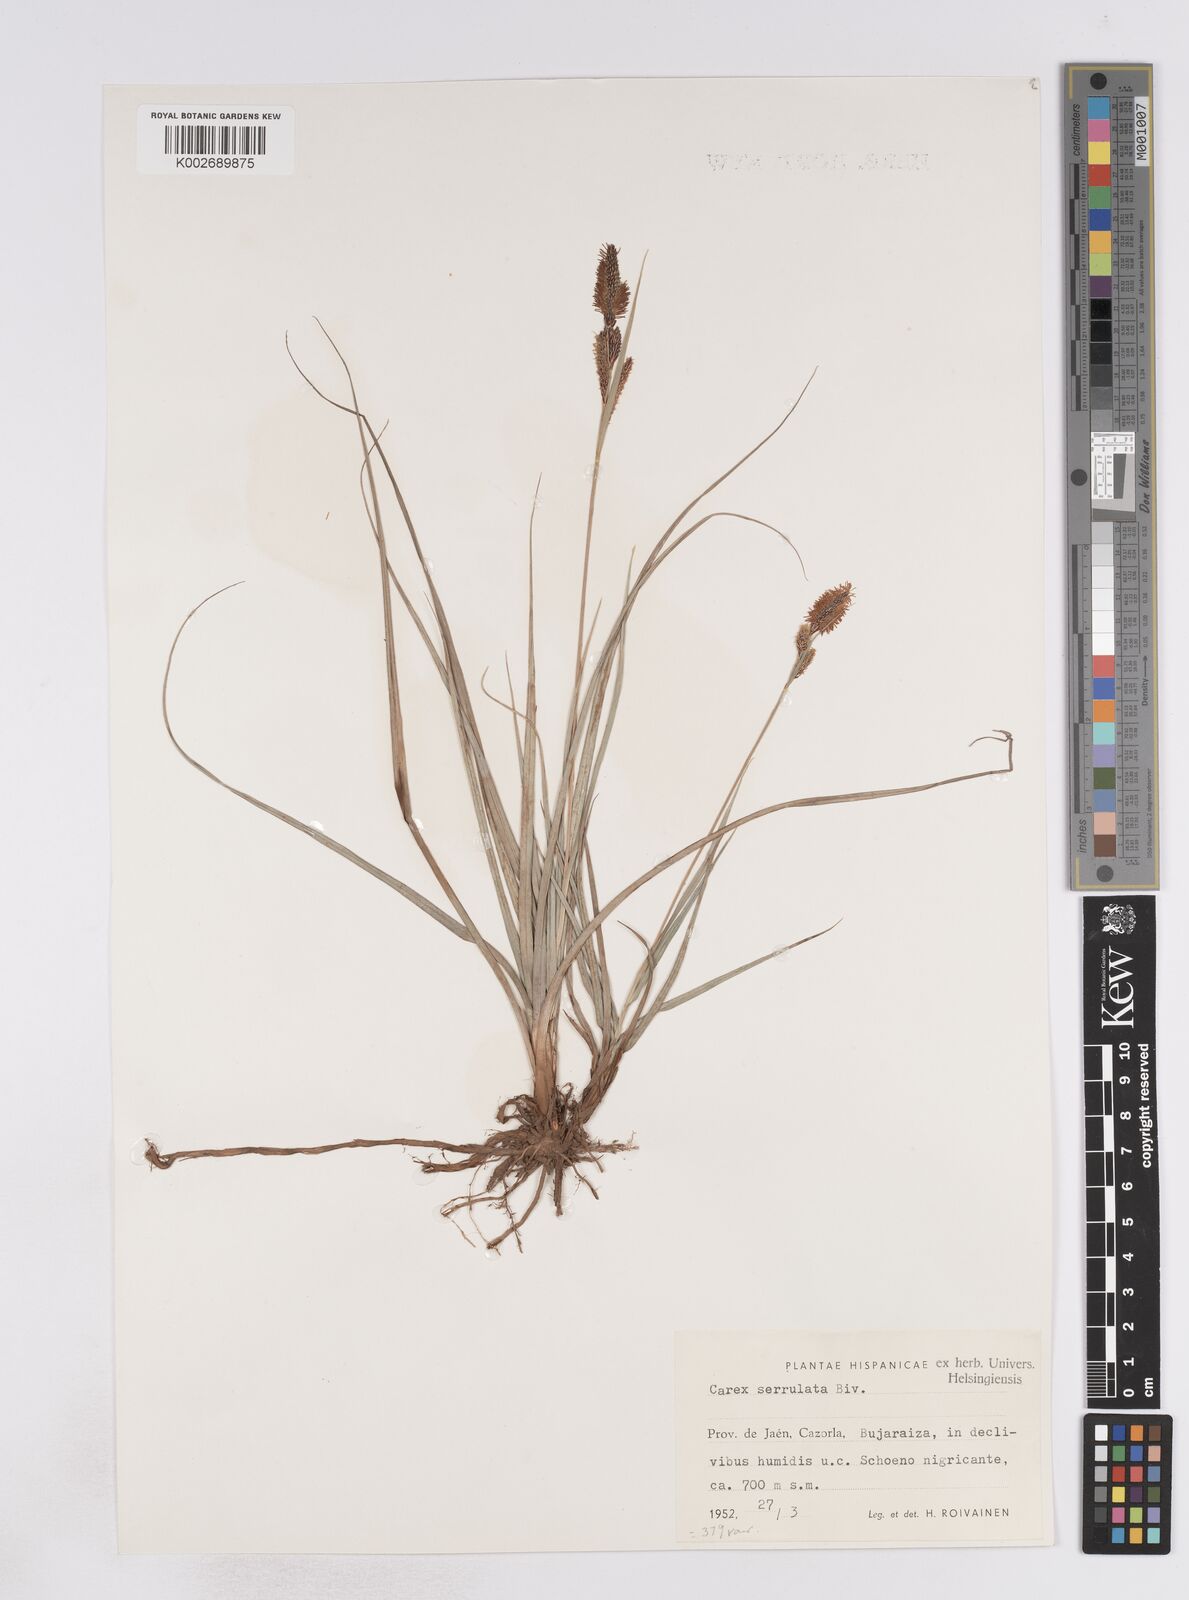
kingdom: Plantae
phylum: Tracheophyta
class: Liliopsida
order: Poales
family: Cyperaceae
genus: Carex
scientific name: Carex flacca
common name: Glaucous sedge
